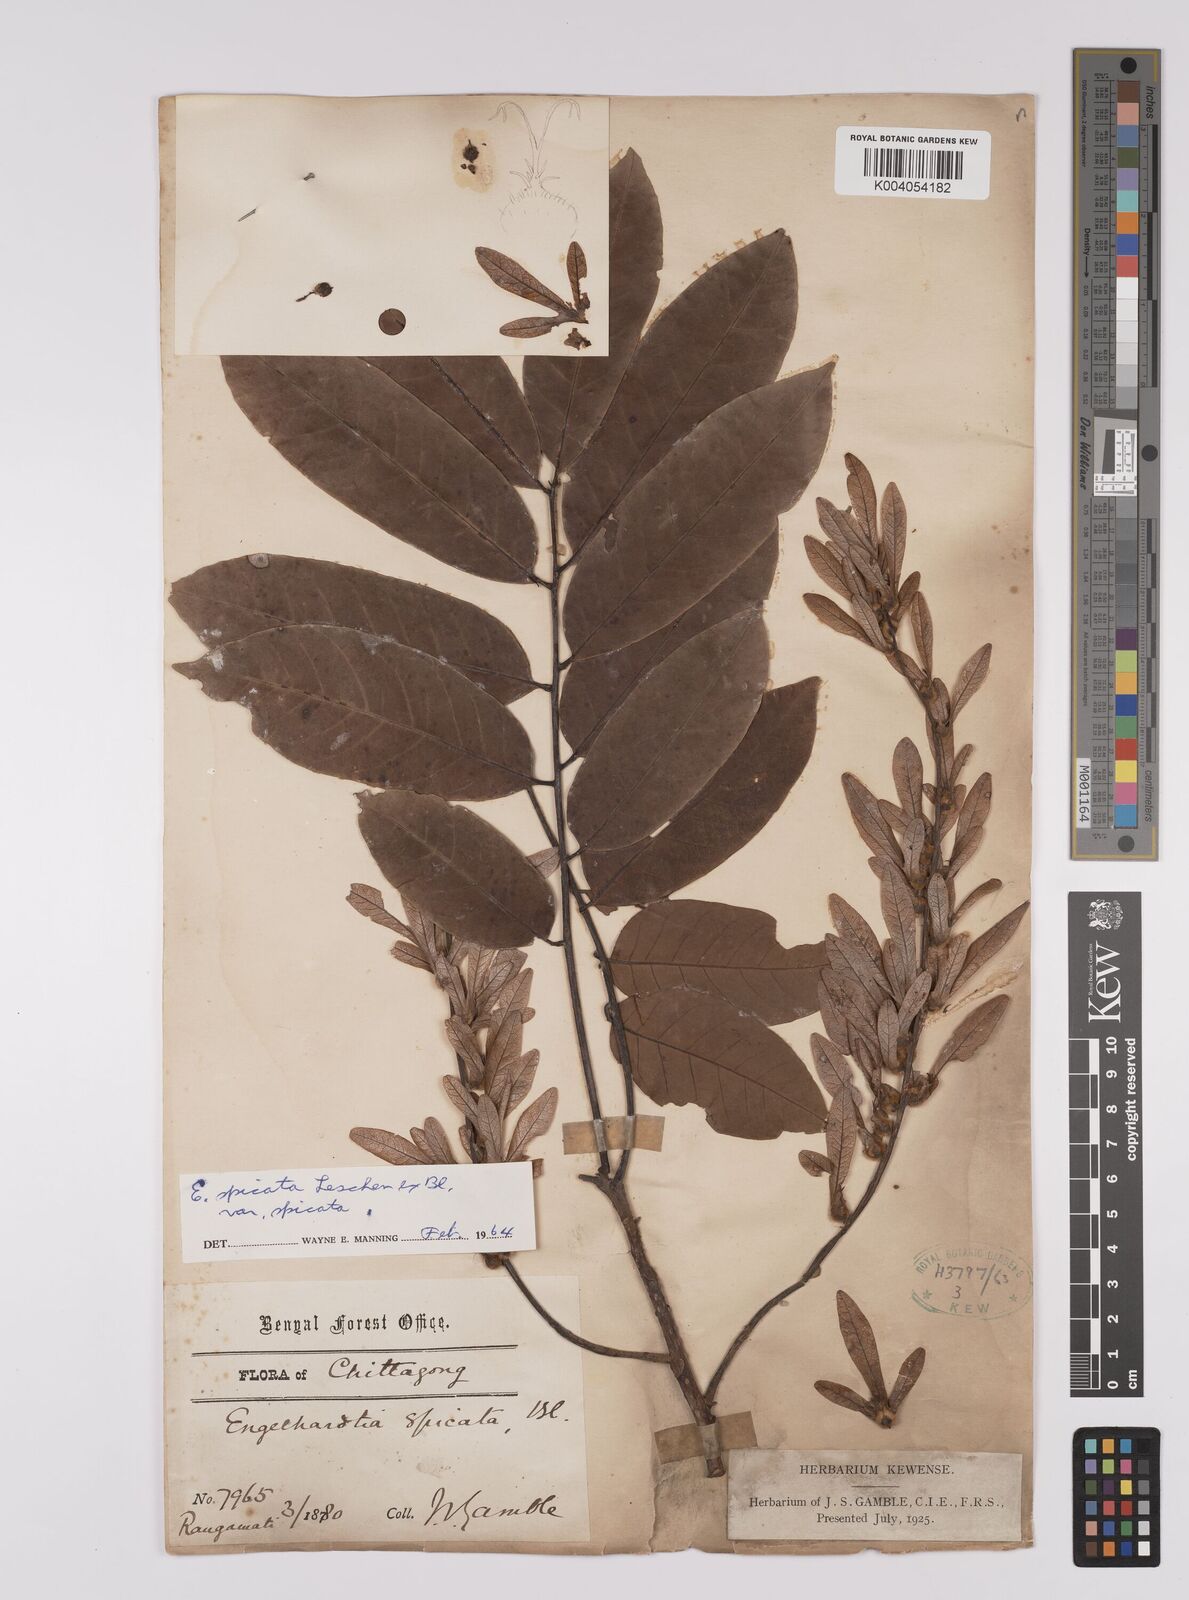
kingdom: Plantae
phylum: Tracheophyta
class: Magnoliopsida
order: Fagales
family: Juglandaceae
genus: Engelhardia
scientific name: Engelhardia spicata
